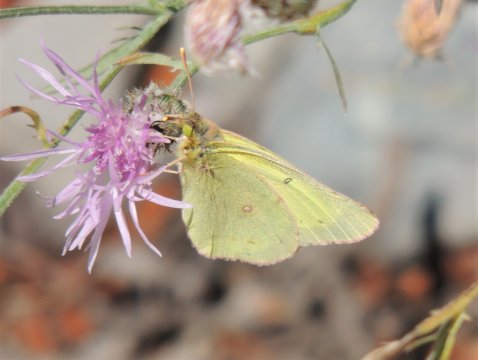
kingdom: Animalia
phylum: Arthropoda
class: Insecta
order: Lepidoptera
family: Pieridae
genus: Colias
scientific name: Colias interior
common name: Pink-edged Sulphur
